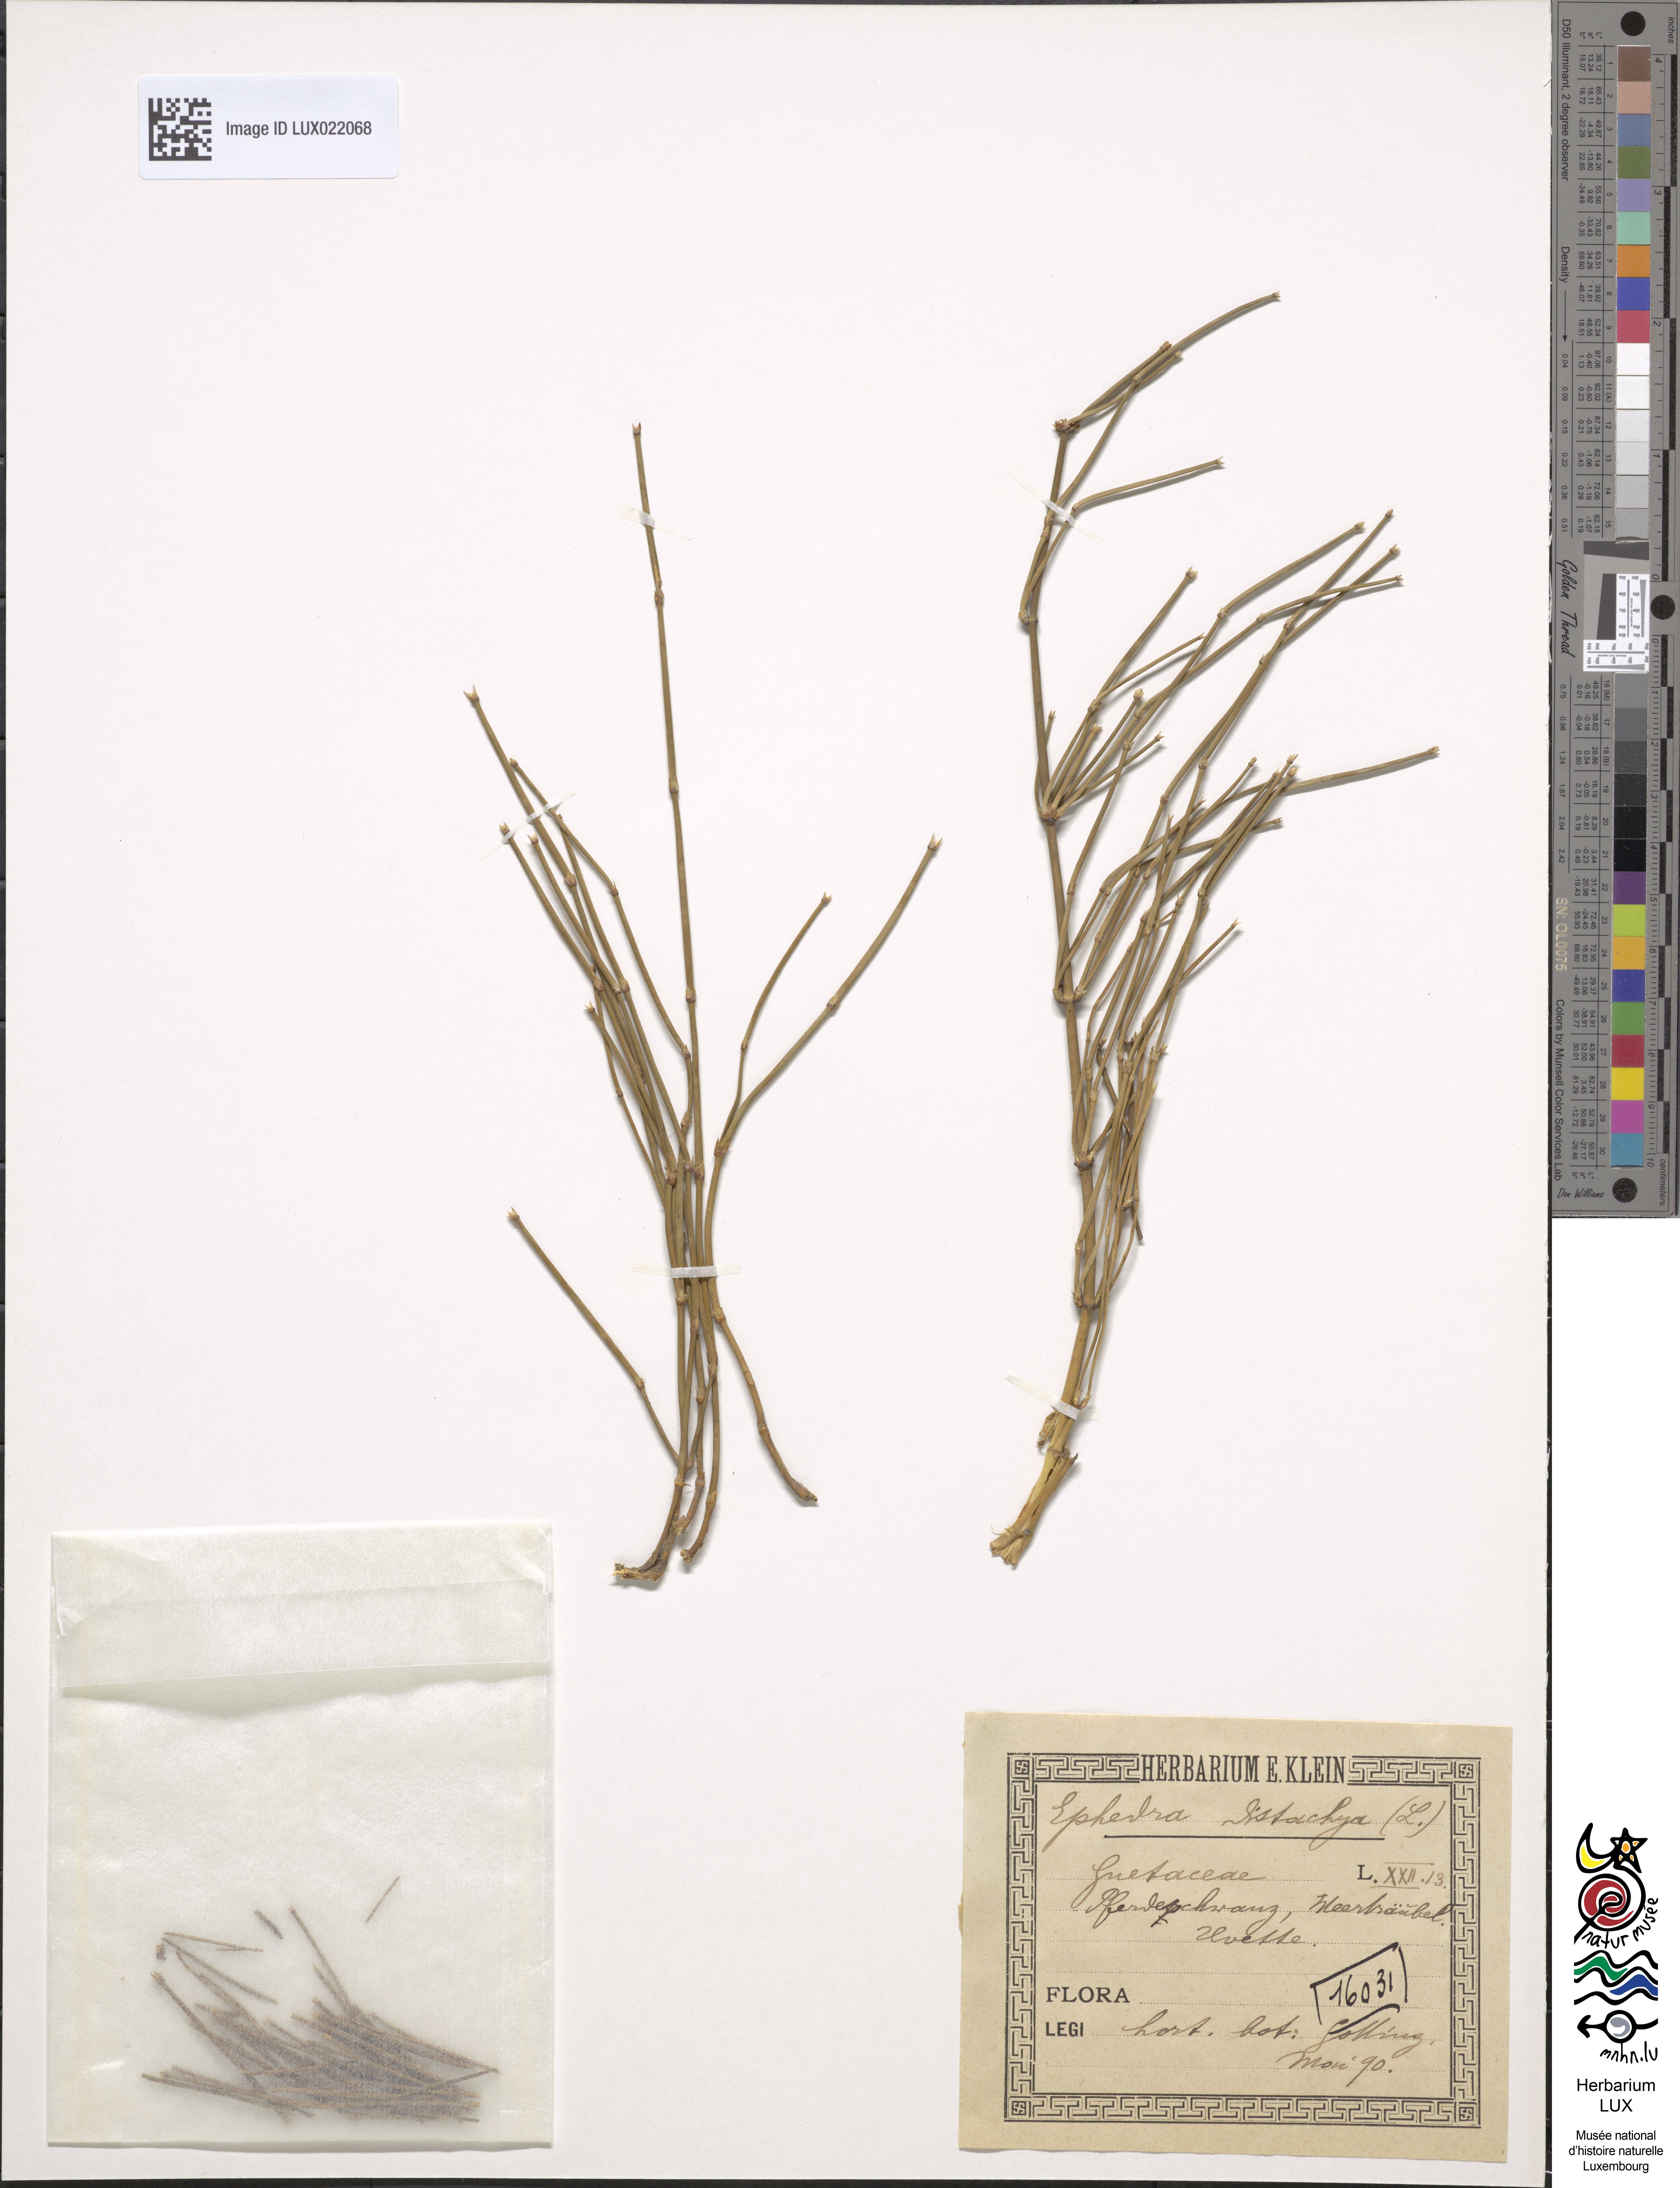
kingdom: Plantae
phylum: Tracheophyta
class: Gnetopsida
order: Ephedrales
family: Ephedraceae
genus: Ephedra
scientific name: Ephedra distachya
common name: Sea grape
